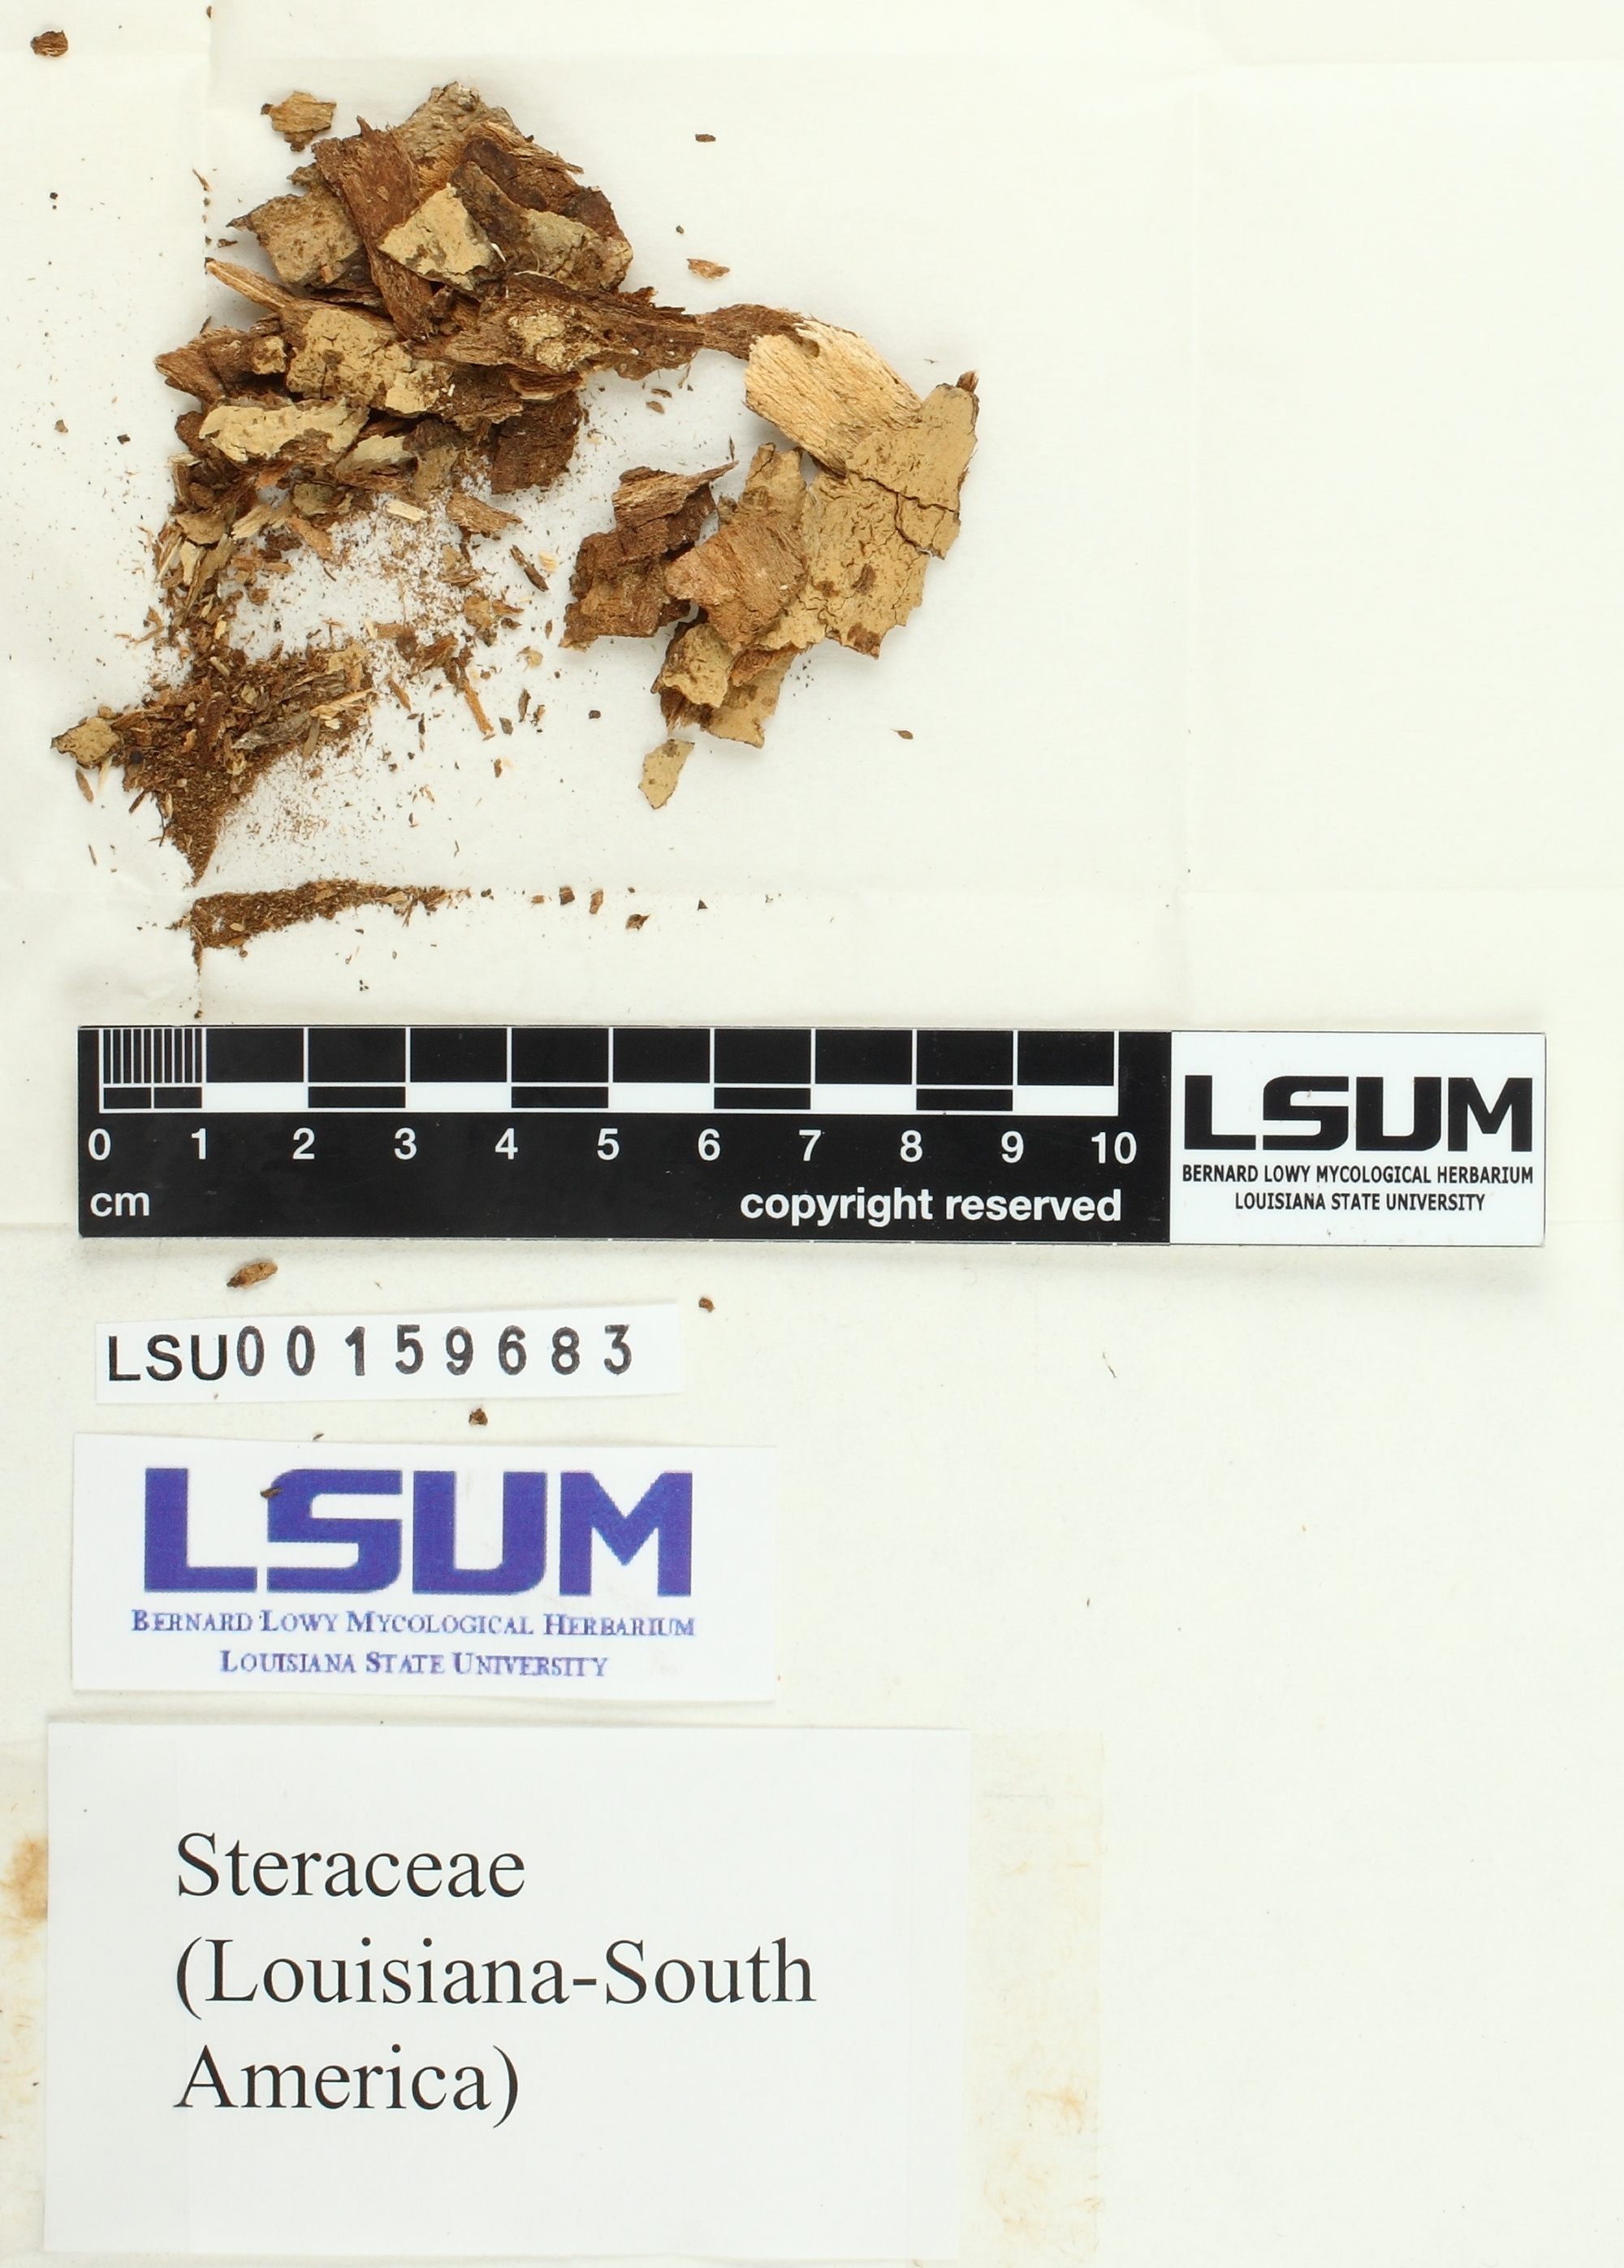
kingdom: Fungi
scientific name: Fungi
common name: Fungi
